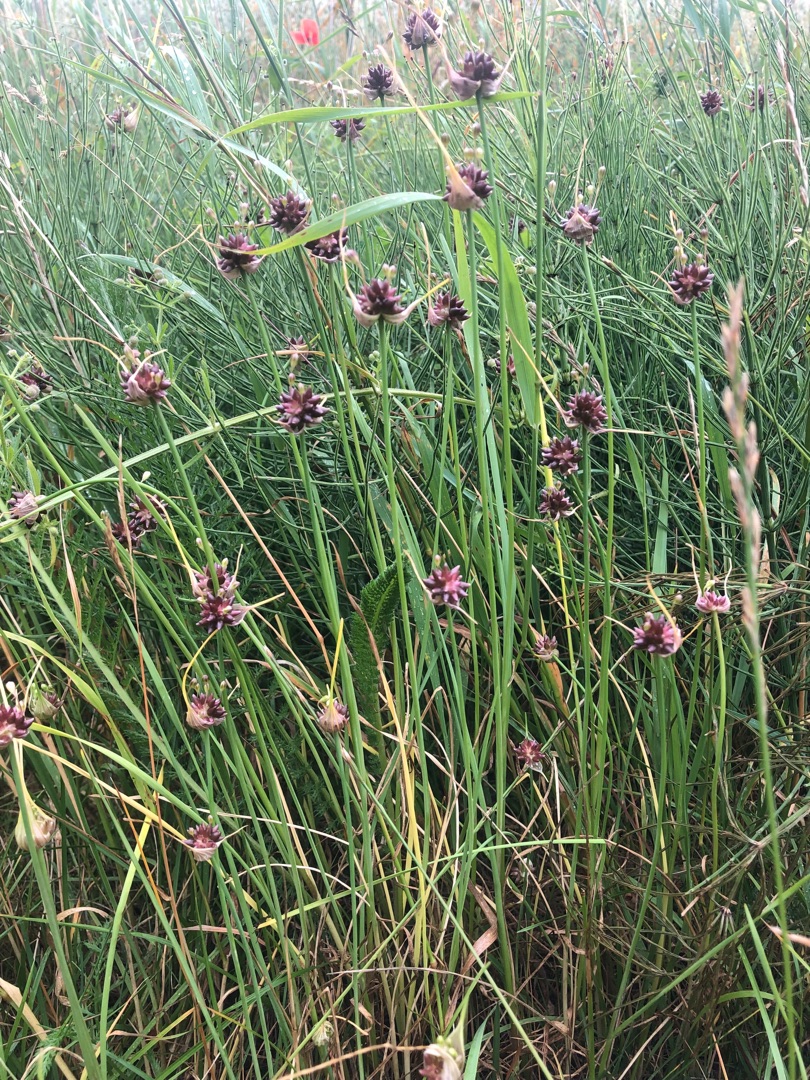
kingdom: Plantae
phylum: Tracheophyta
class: Liliopsida
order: Asparagales
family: Amaryllidaceae
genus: Allium
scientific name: Allium oleraceum
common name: Vild løg
